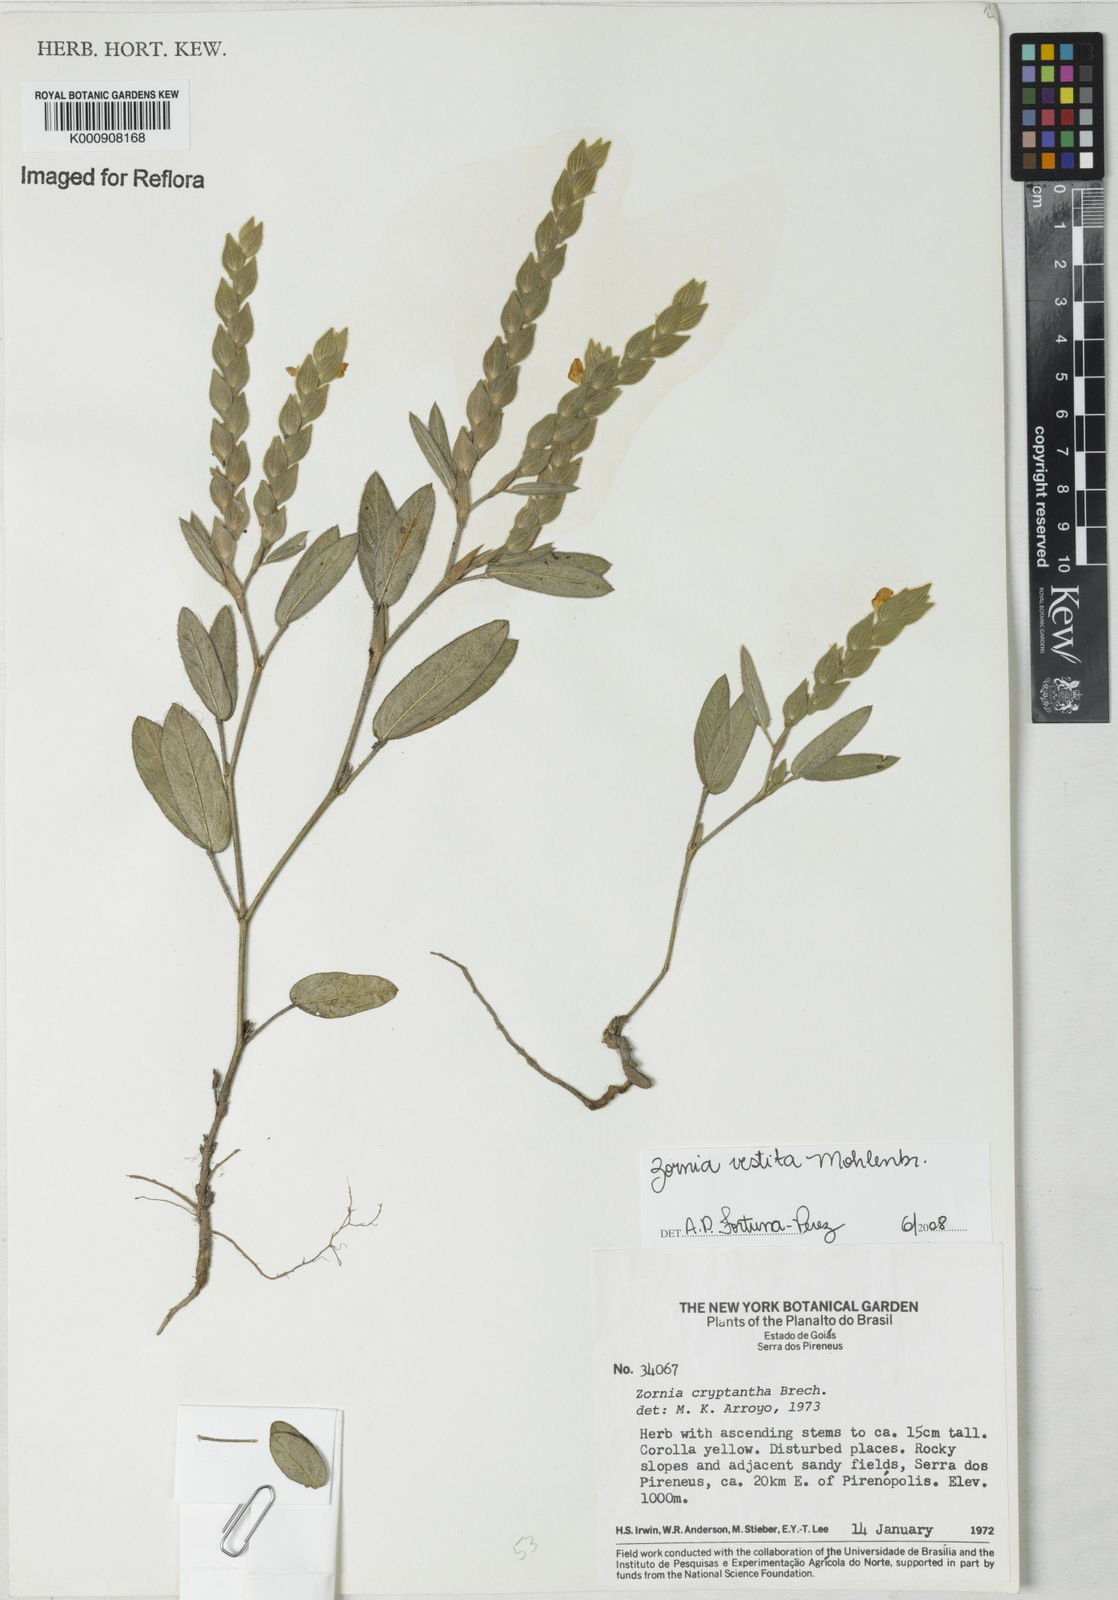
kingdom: Plantae
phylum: Tracheophyta
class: Magnoliopsida
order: Fabales
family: Fabaceae
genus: Zornia
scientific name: Zornia villosa
